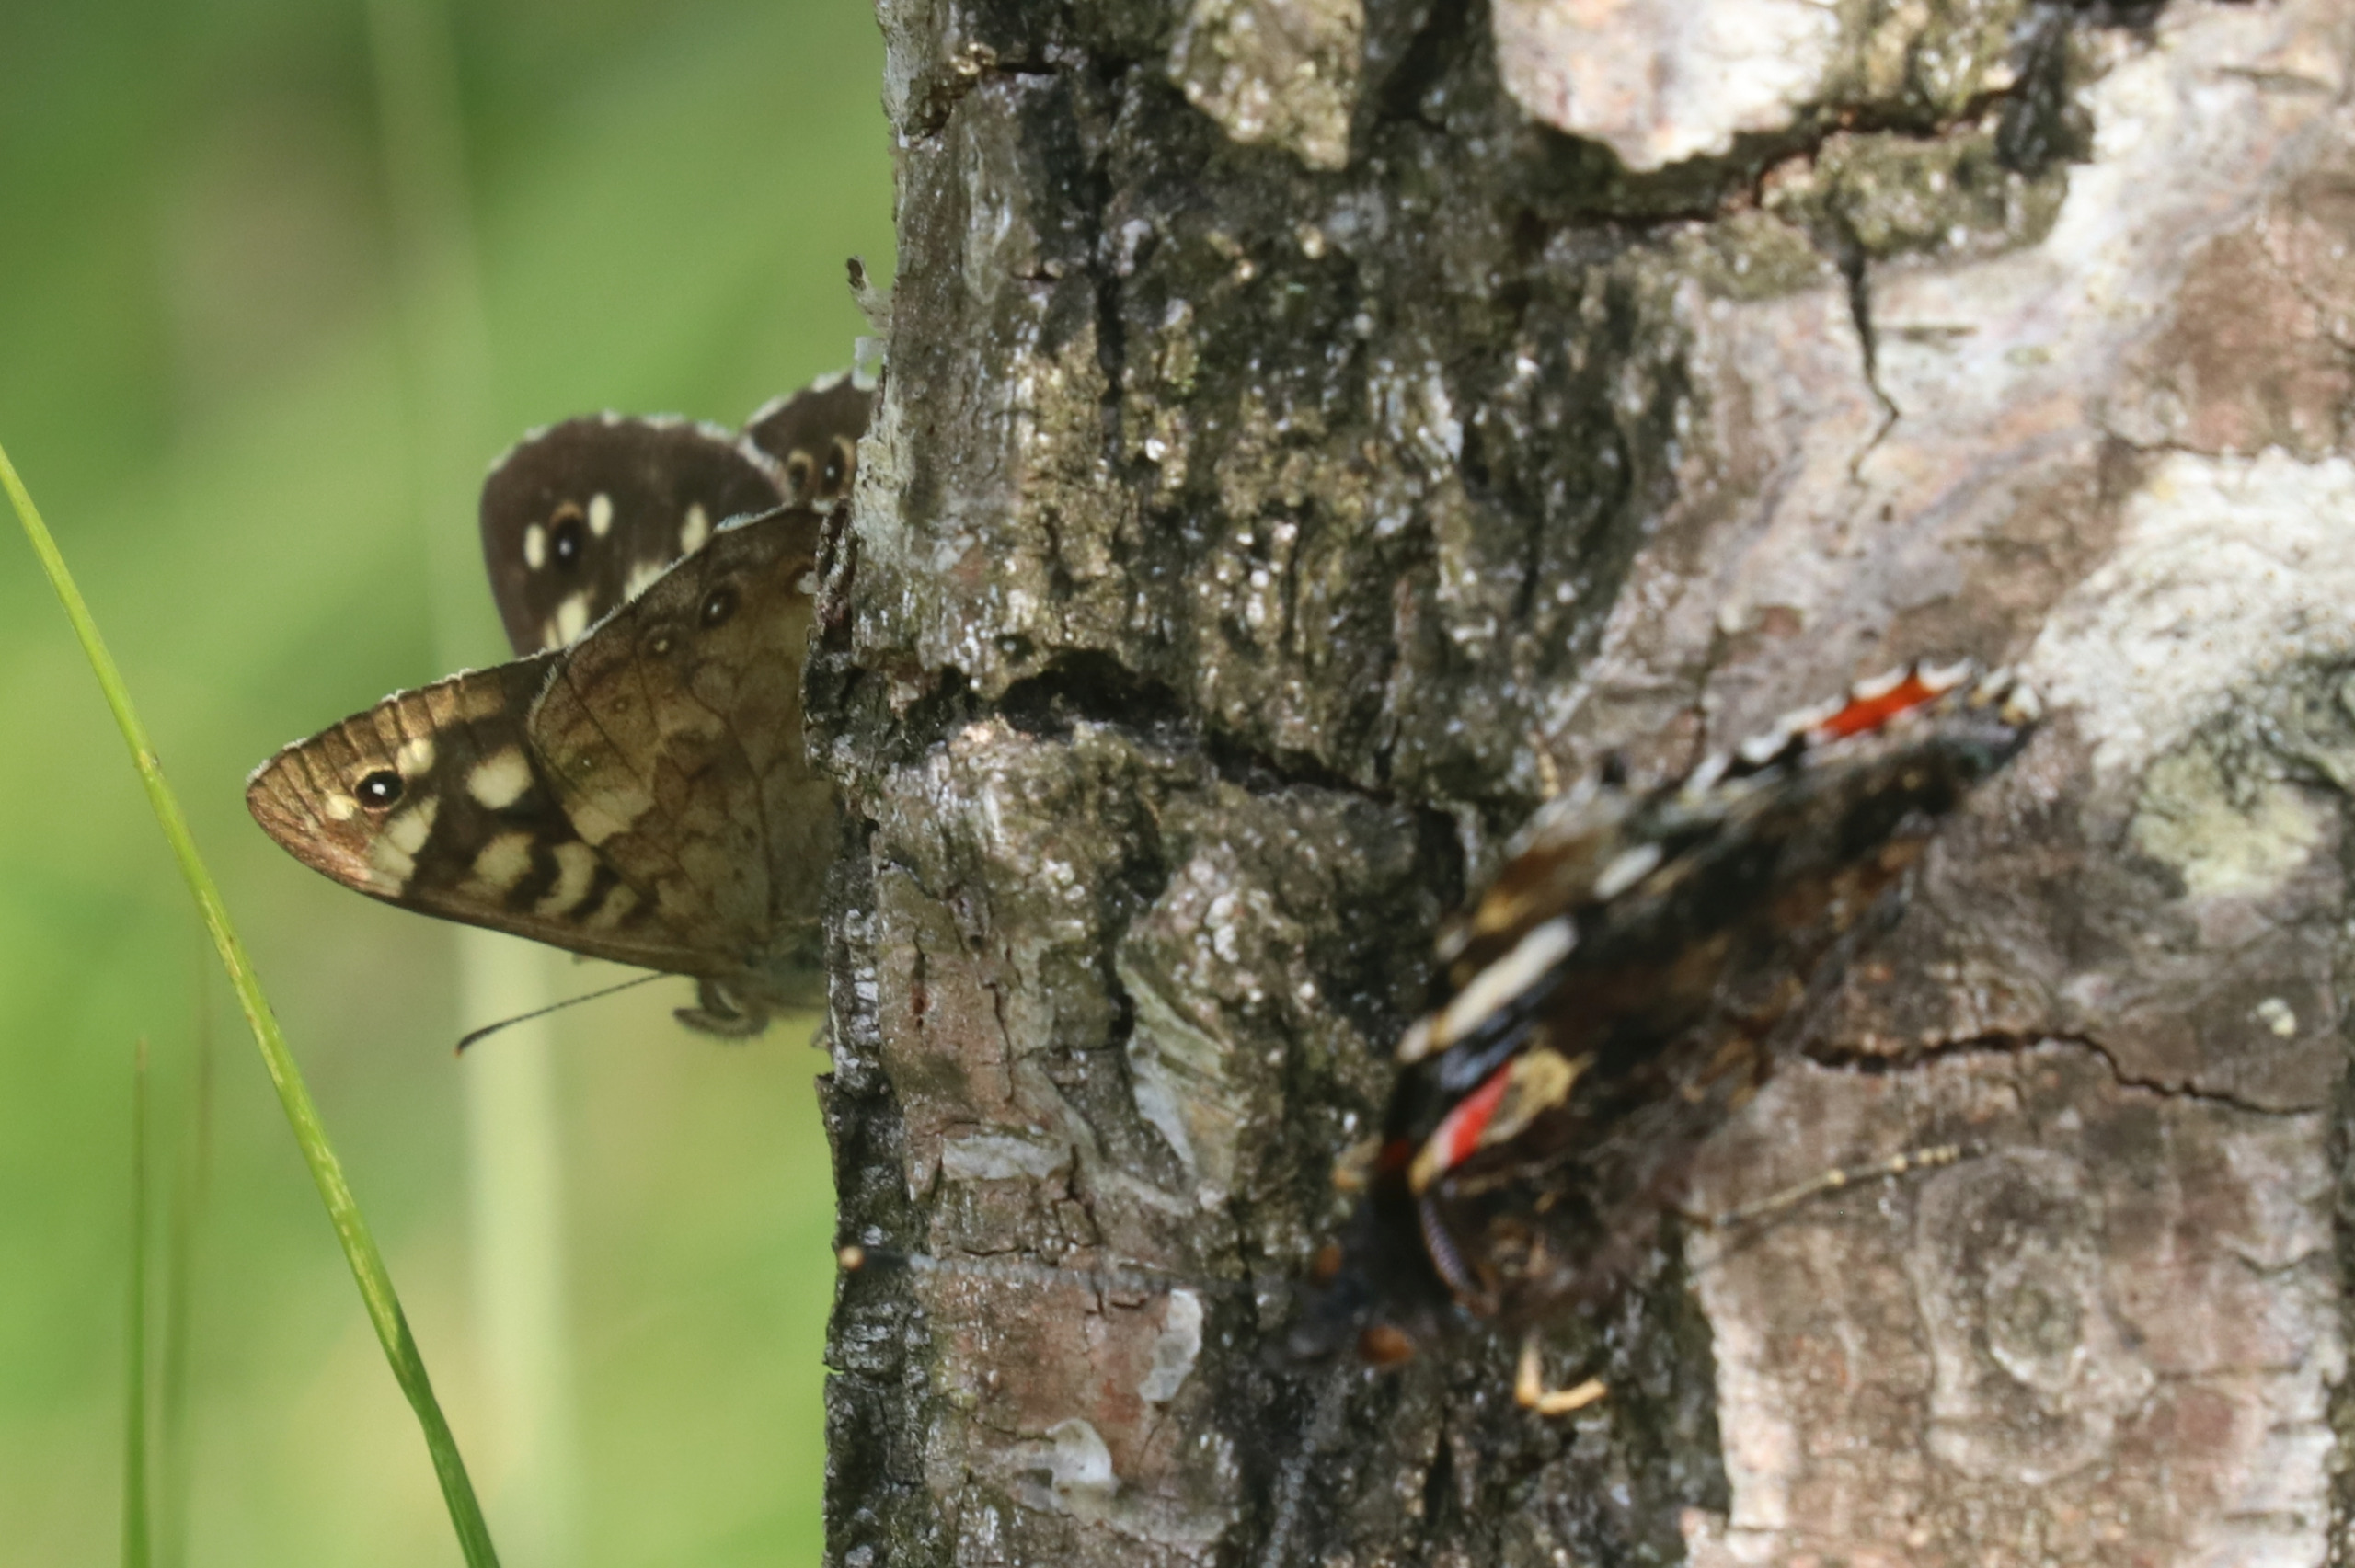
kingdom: Animalia
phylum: Arthropoda
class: Insecta
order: Lepidoptera
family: Nymphalidae
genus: Pararge
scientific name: Pararge aegeria
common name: Skovrandøje
